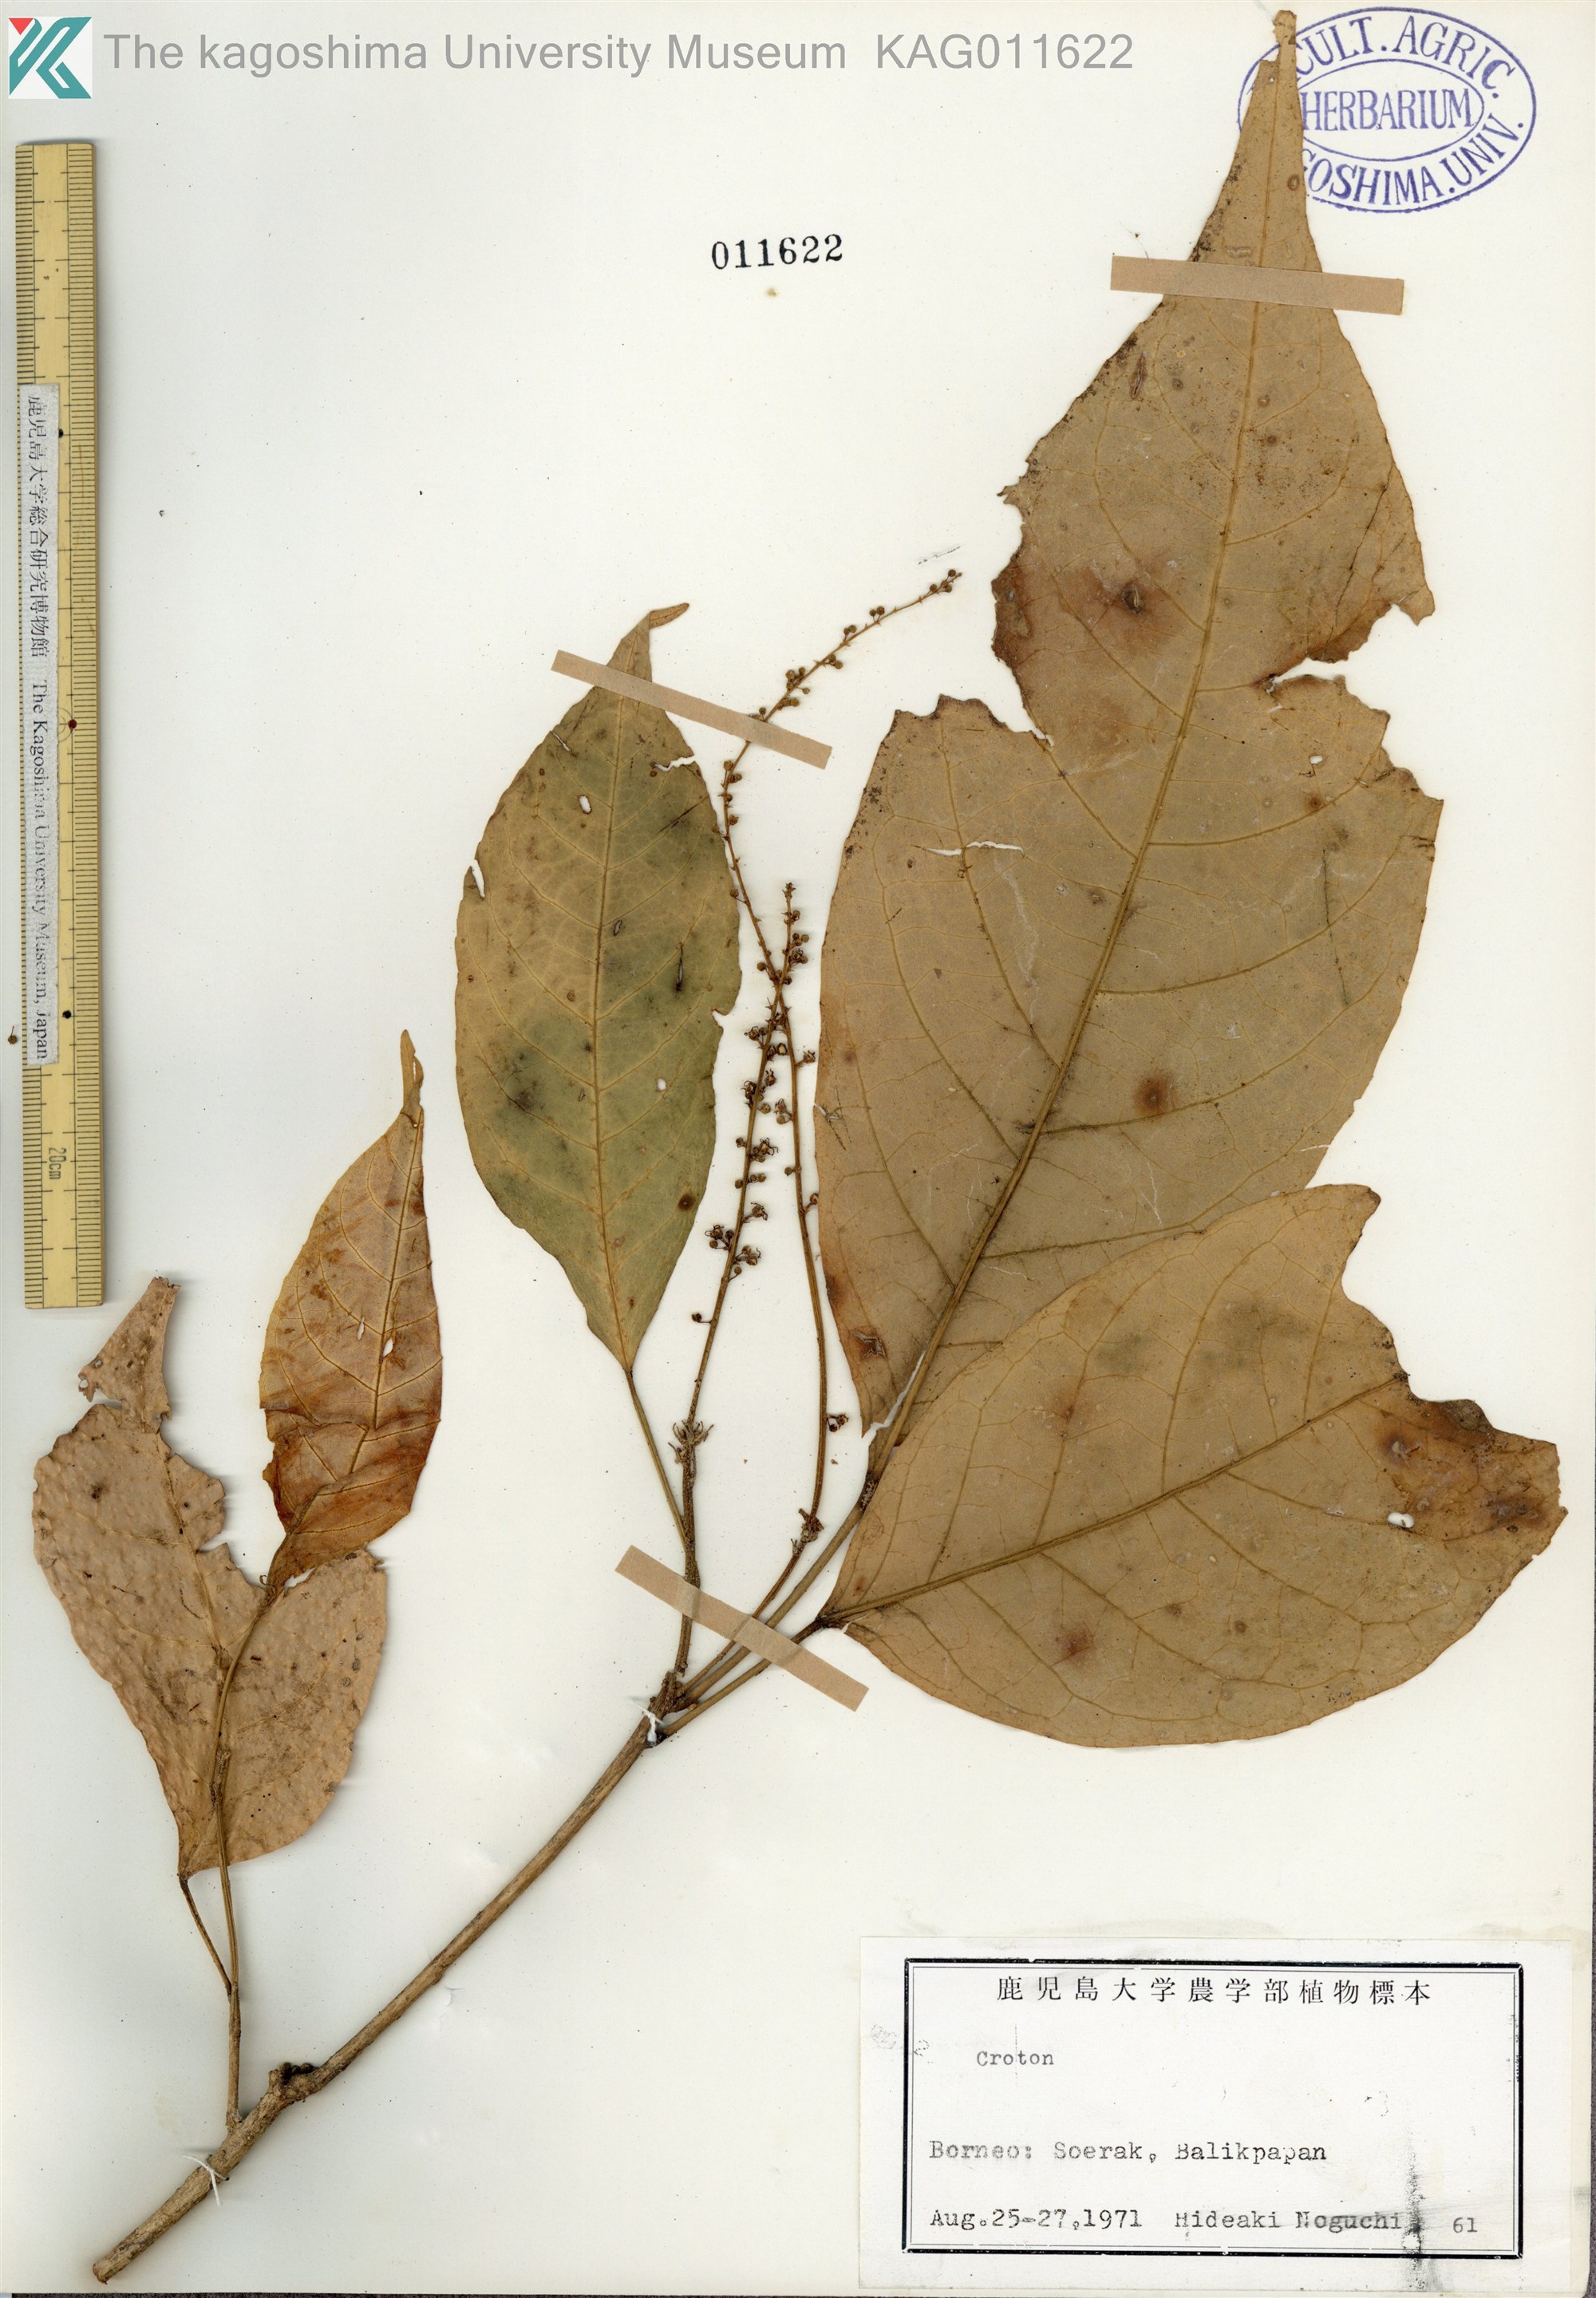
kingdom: Plantae
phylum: Tracheophyta
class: Magnoliopsida
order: Malpighiales
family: Euphorbiaceae
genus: Croton
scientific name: Croton
